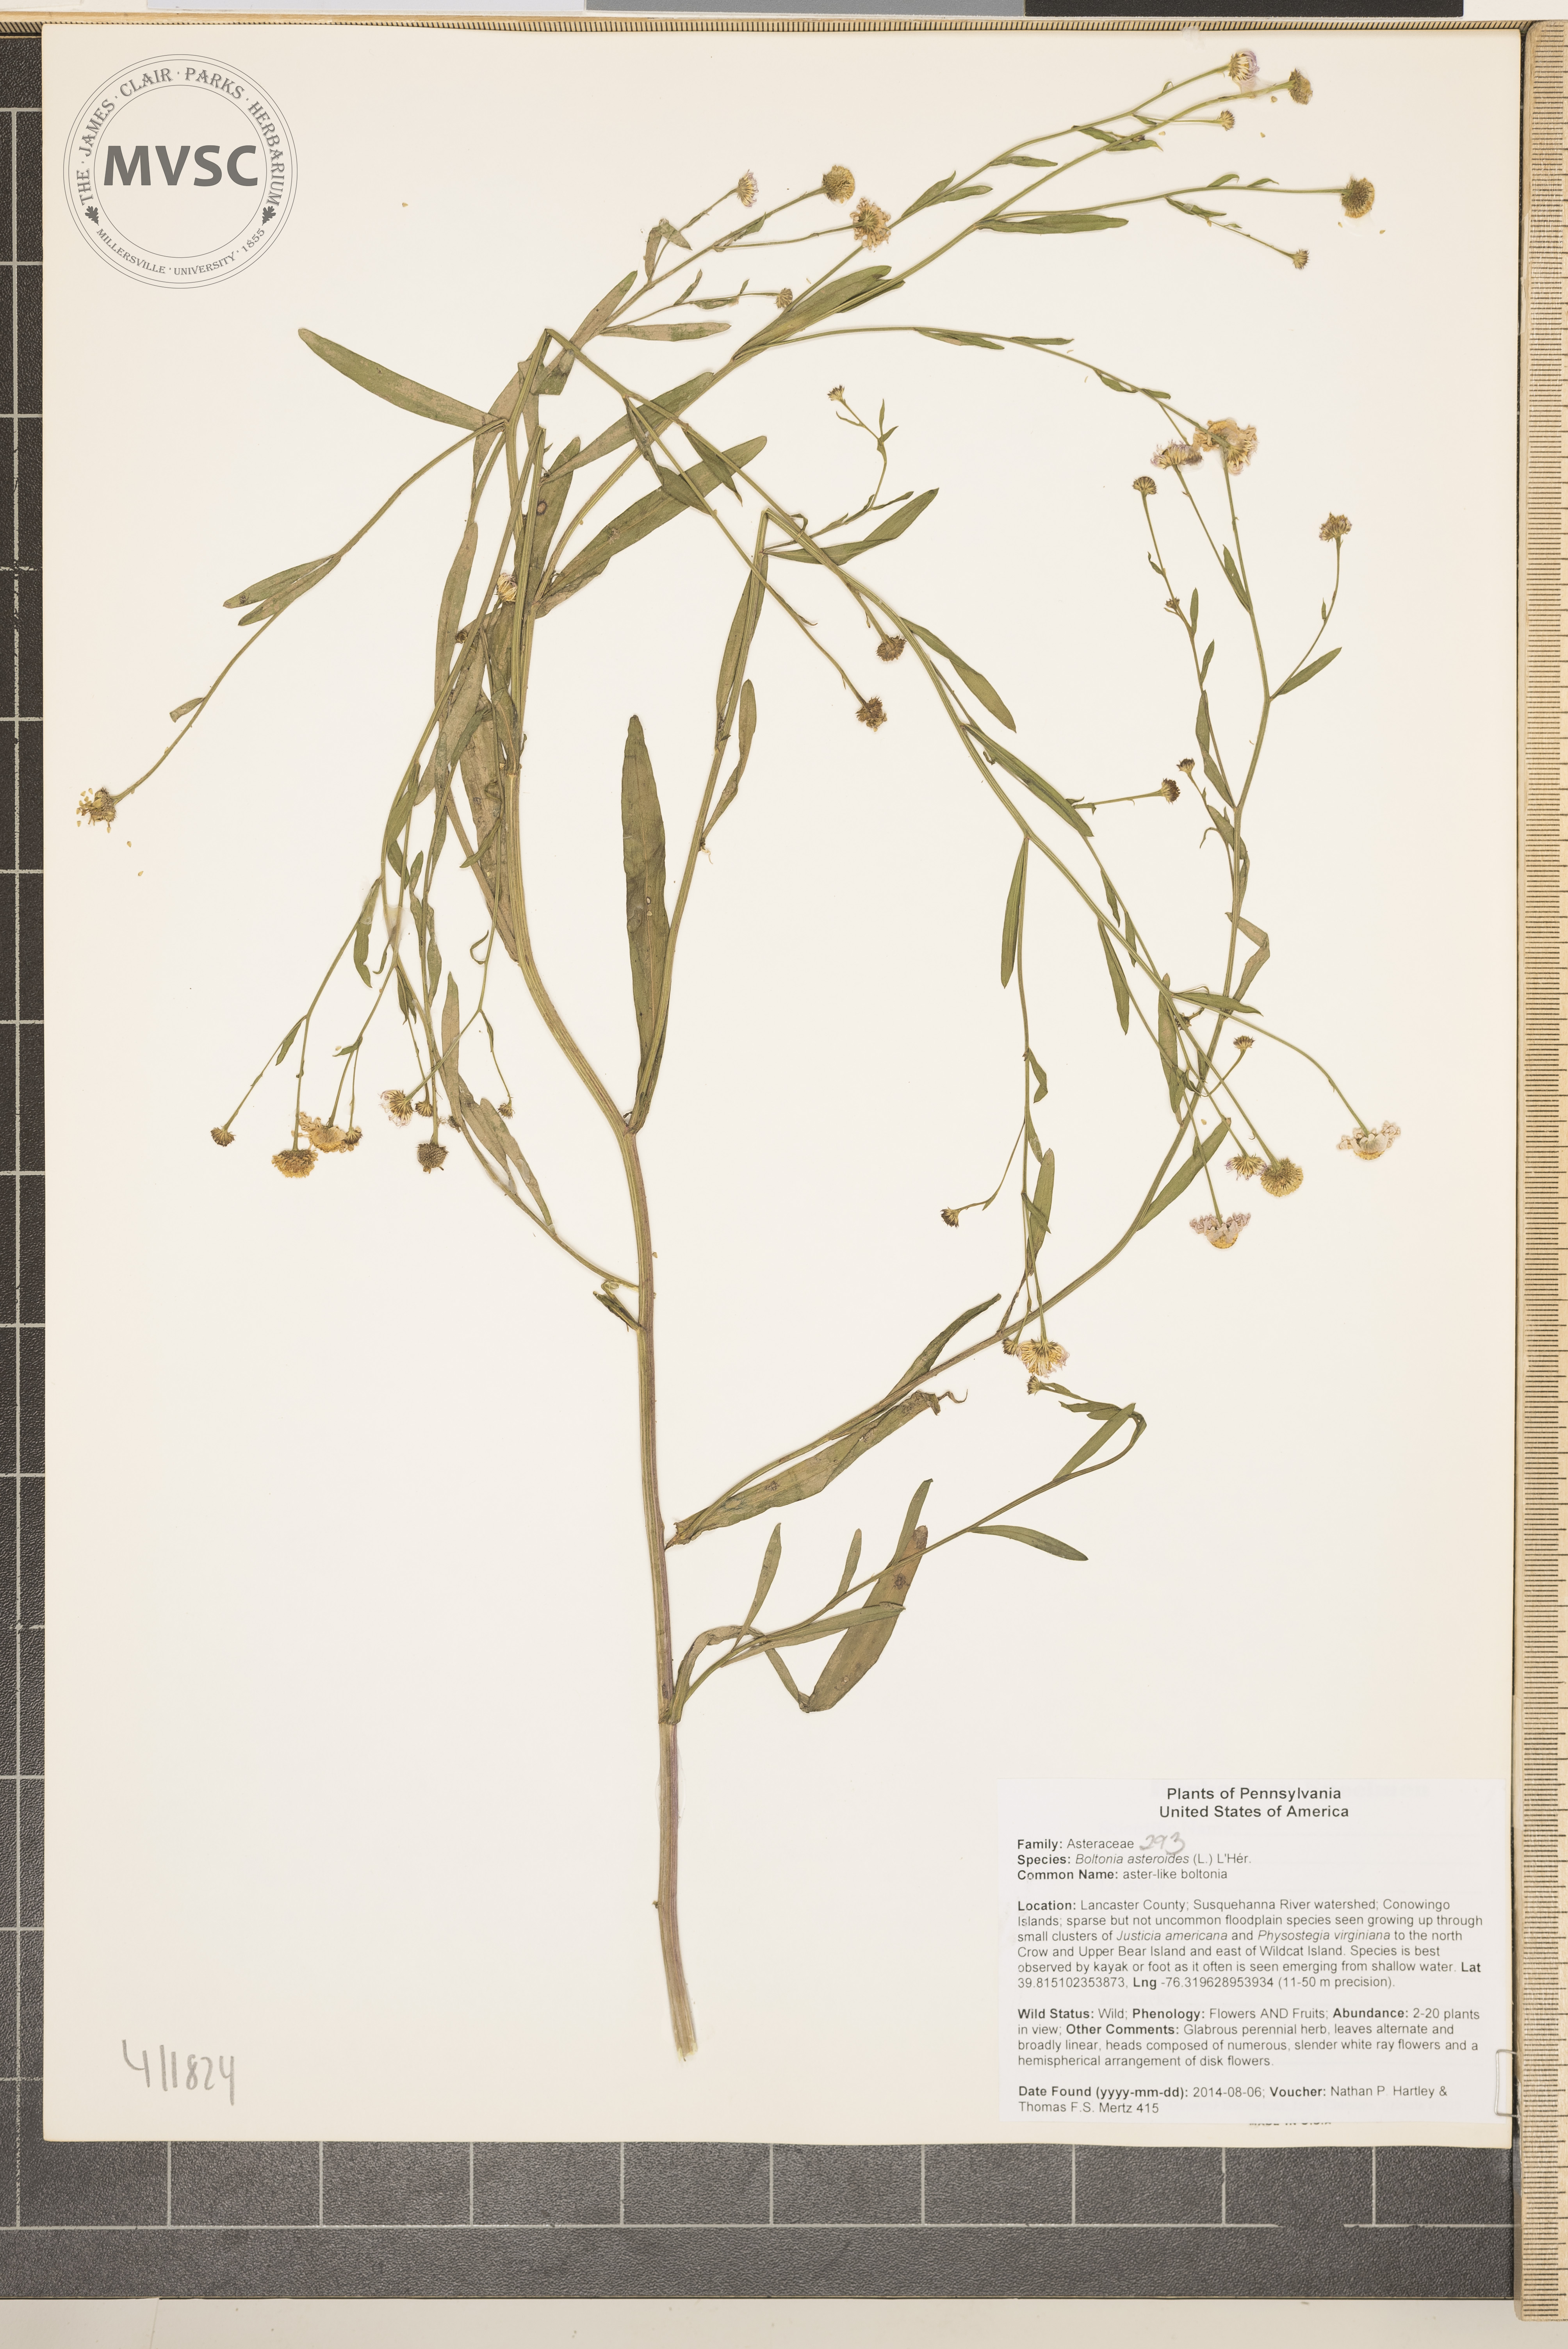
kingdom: Plantae
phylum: Tracheophyta
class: Magnoliopsida
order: Asterales
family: Asteraceae
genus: Boltonia
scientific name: Boltonia asteroides
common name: aster-like boltonia
